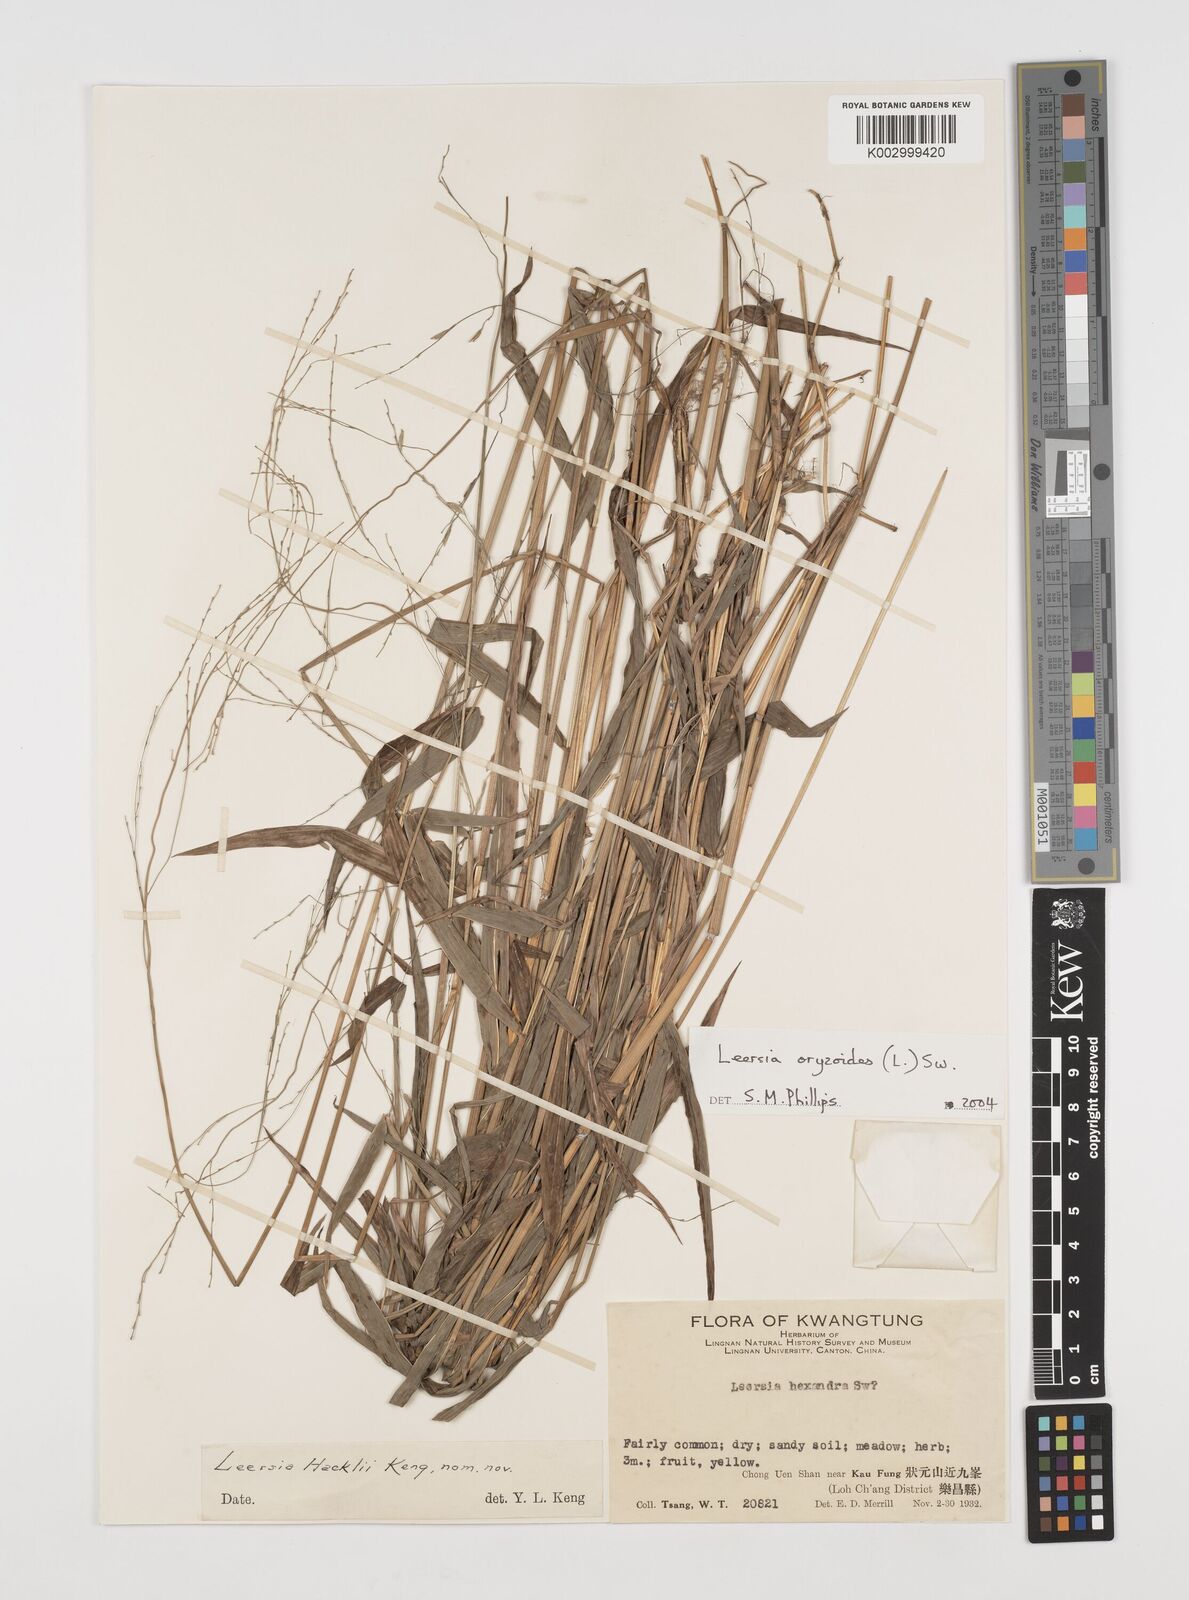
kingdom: Plantae
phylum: Tracheophyta
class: Liliopsida
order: Poales
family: Poaceae
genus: Leersia
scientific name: Leersia oryzoides
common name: Cut-grass
